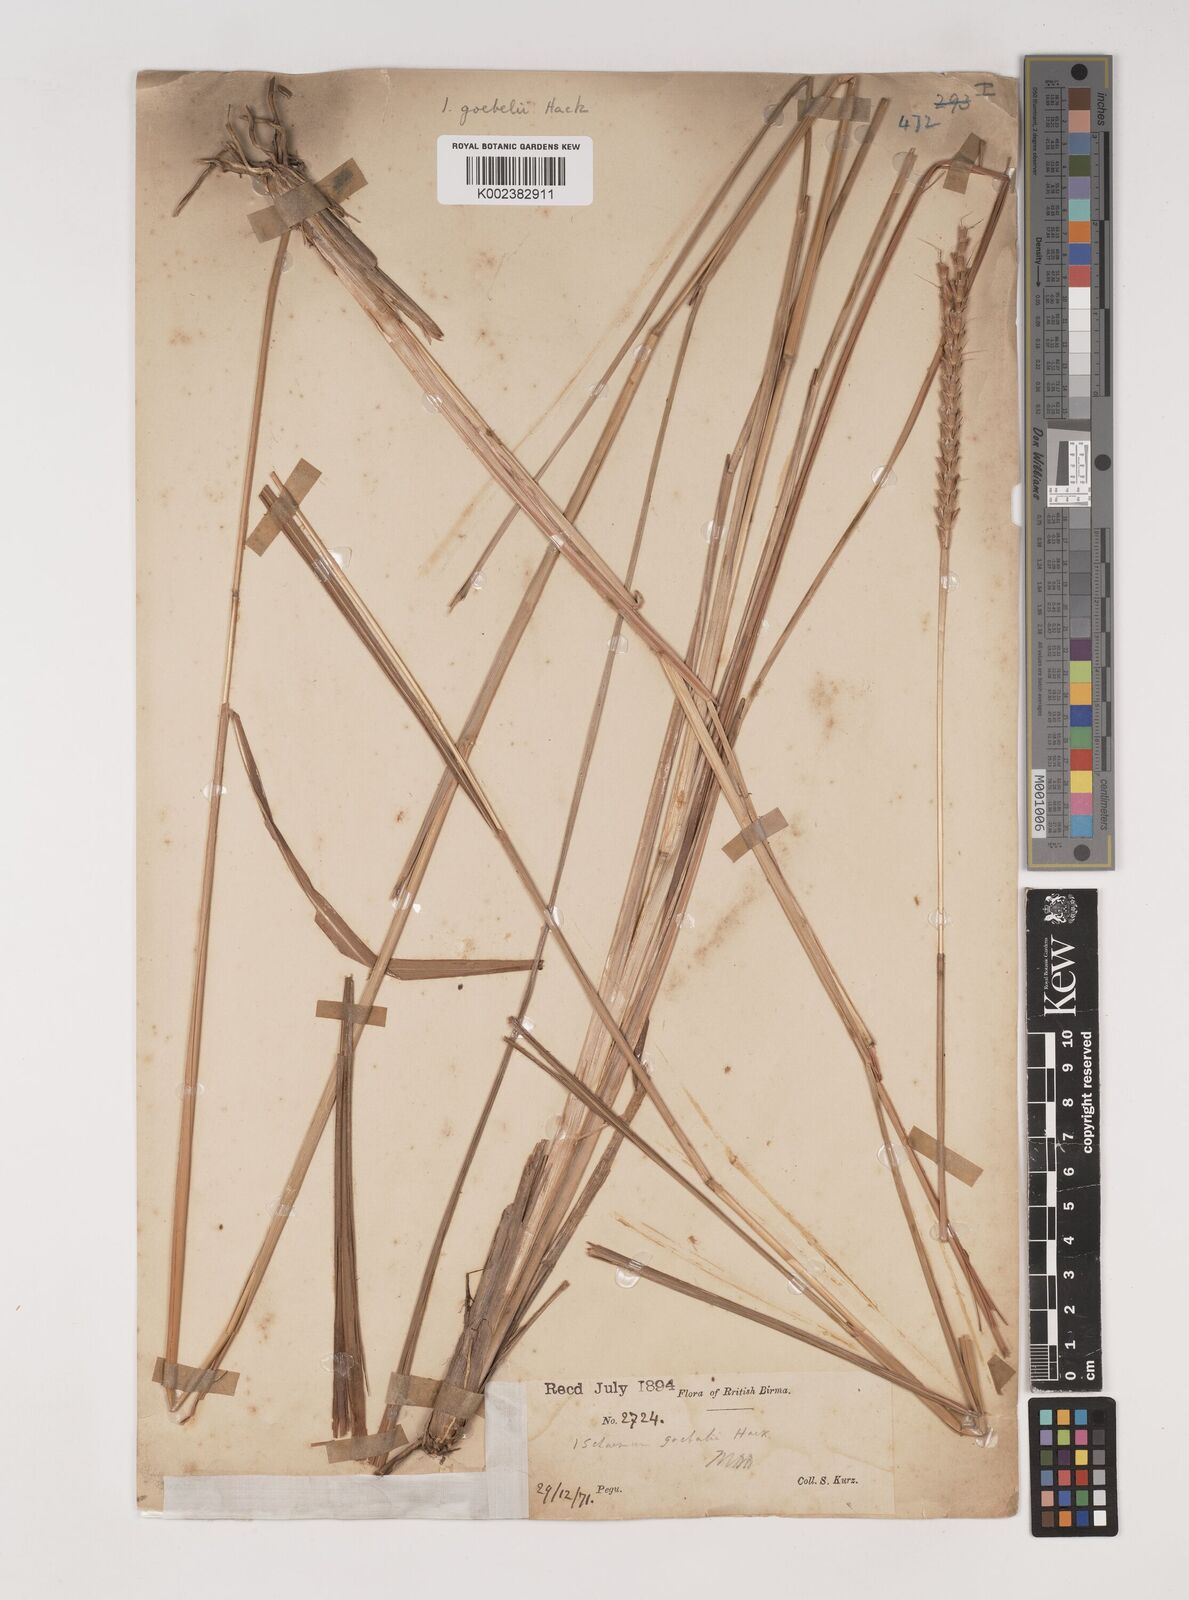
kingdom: Plantae
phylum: Tracheophyta
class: Liliopsida
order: Poales
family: Poaceae
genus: Ischaemum
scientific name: Ischaemum
